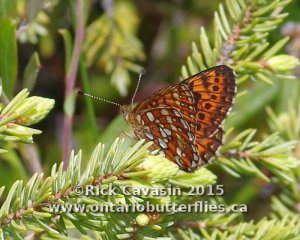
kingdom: Animalia
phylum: Arthropoda
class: Insecta
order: Lepidoptera
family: Nymphalidae
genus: Boloria
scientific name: Boloria eunomia
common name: Bog Fritillary
